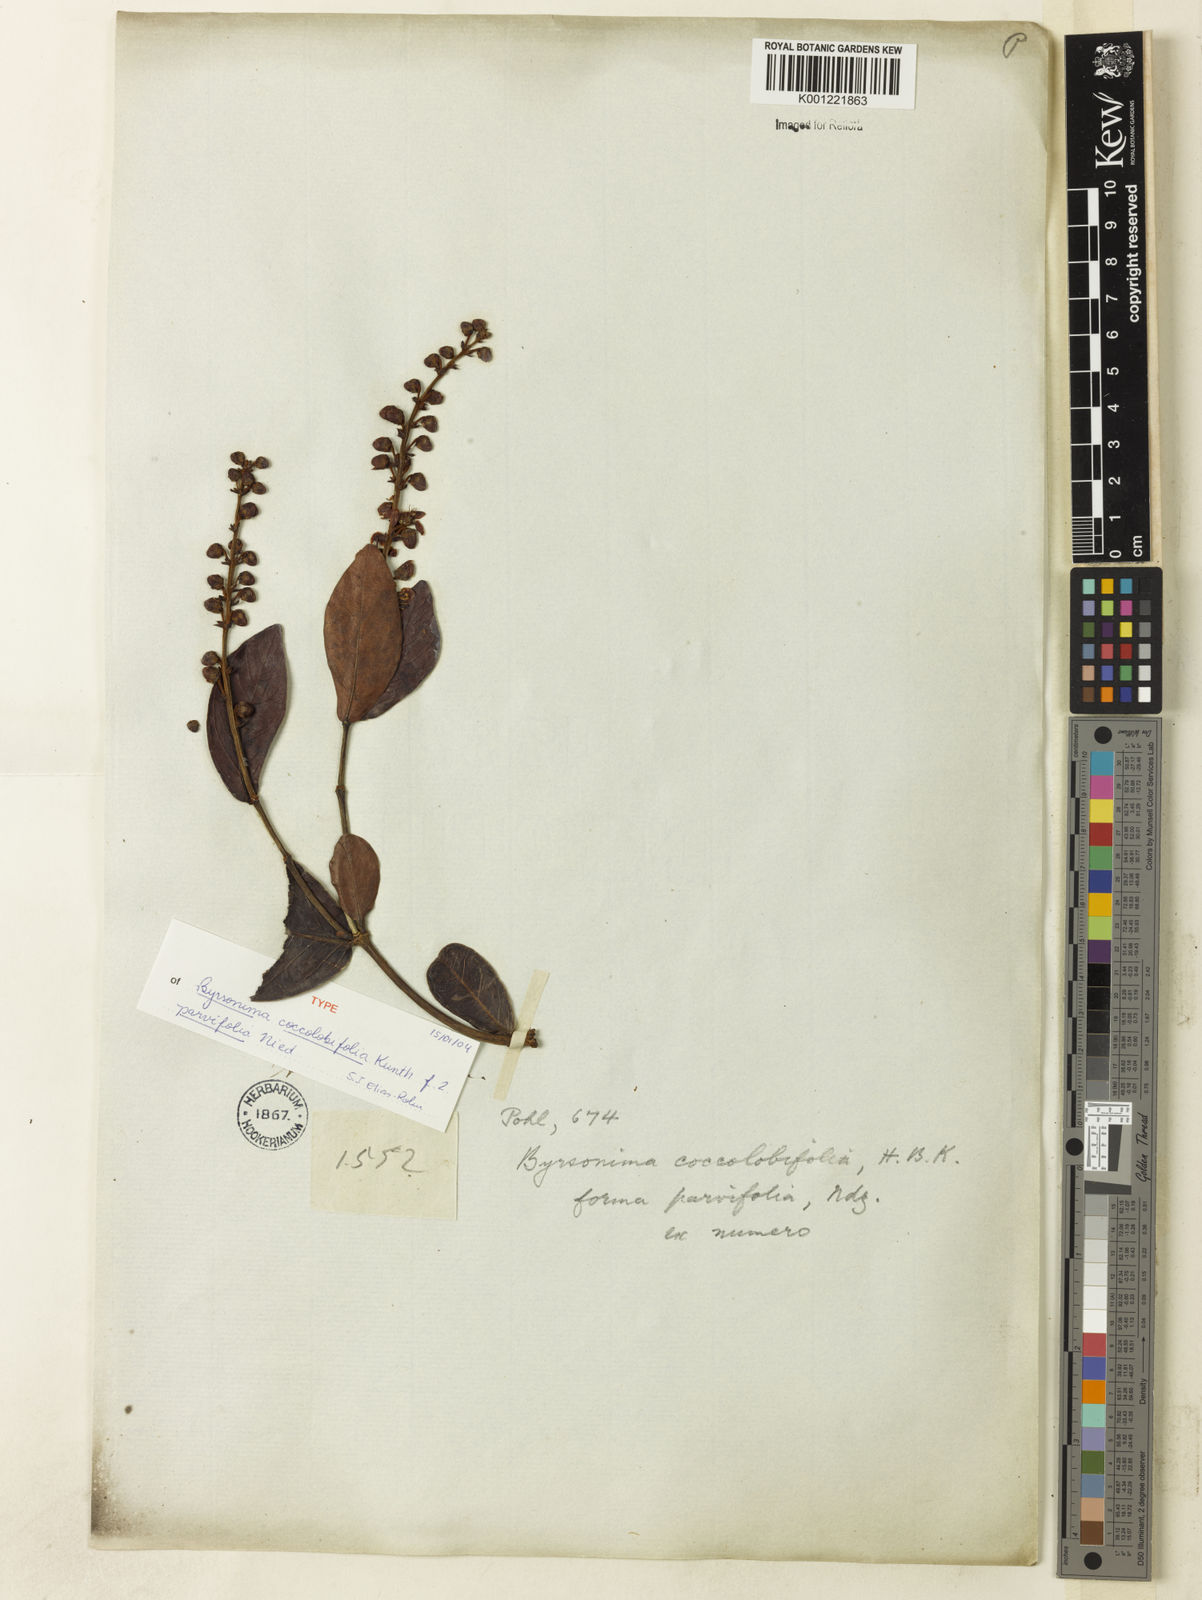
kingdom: Plantae
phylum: Tracheophyta
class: Magnoliopsida
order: Malpighiales
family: Malpighiaceae
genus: Byrsonima
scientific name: Byrsonima coccolobifolia
